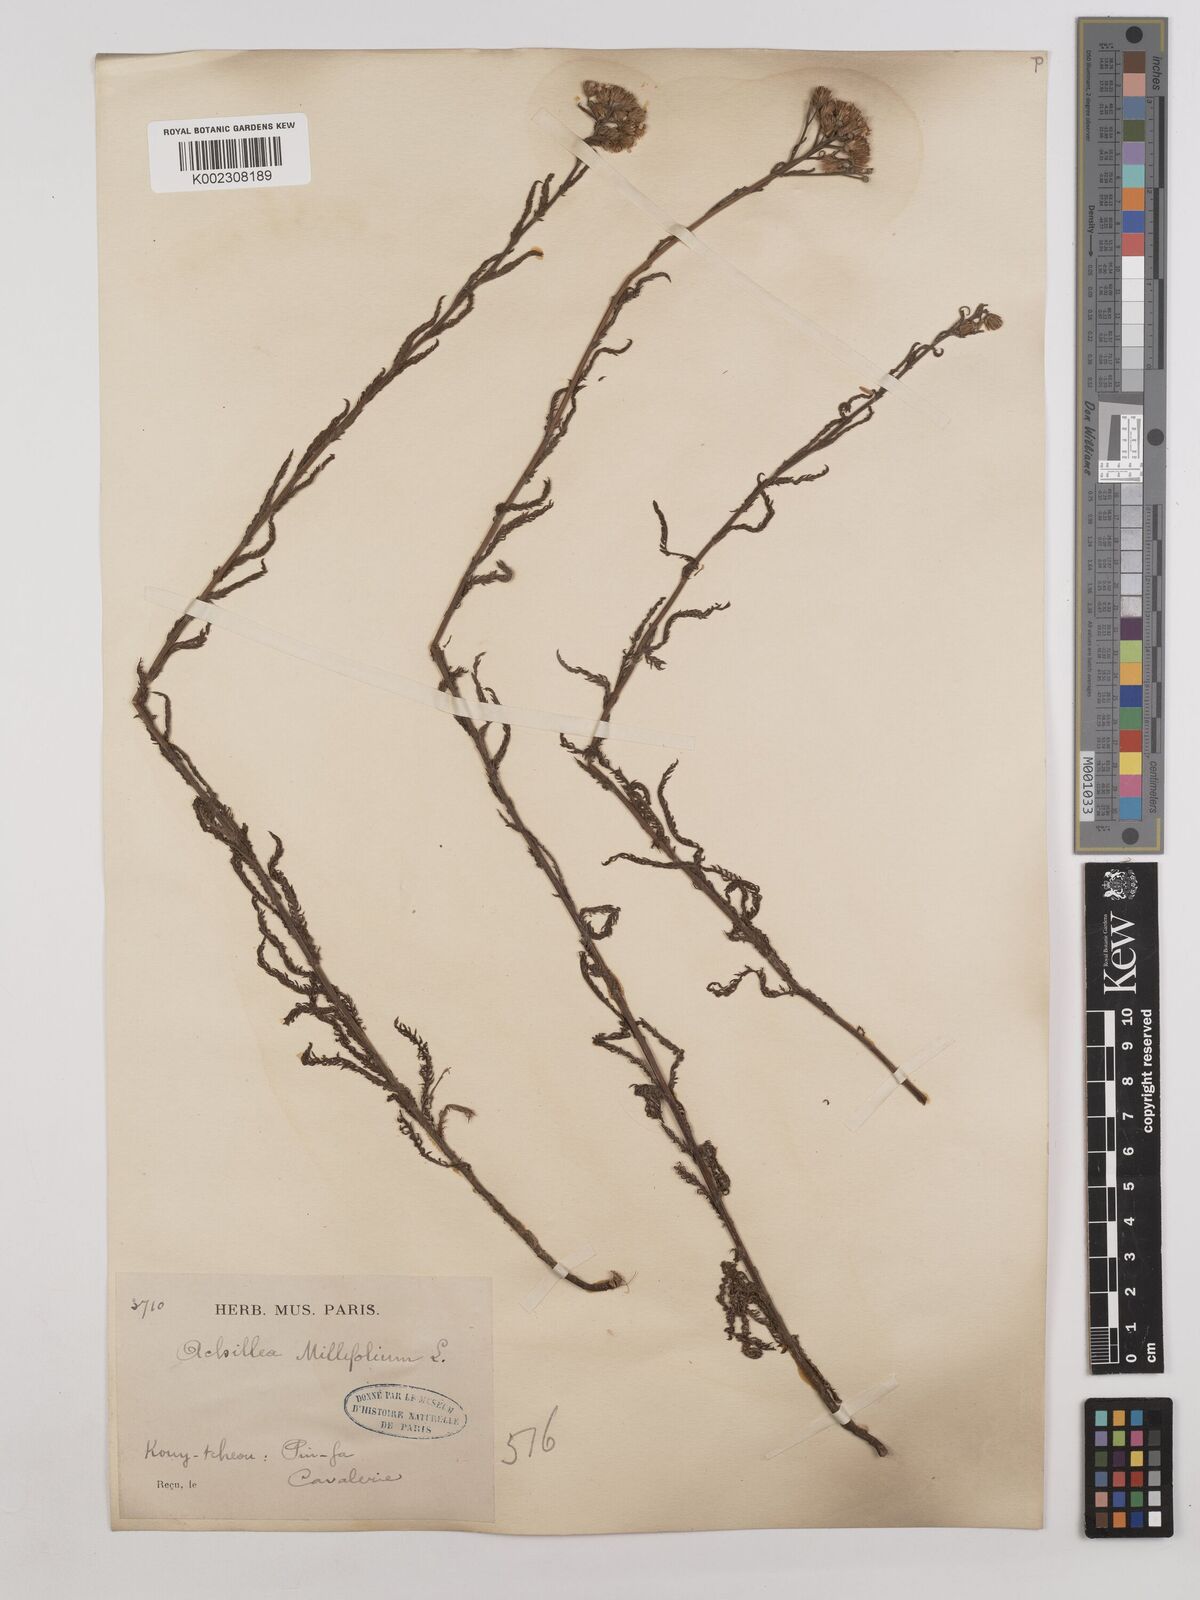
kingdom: Plantae
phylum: Tracheophyta
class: Magnoliopsida
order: Asterales
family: Asteraceae
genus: Achillea
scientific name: Achillea alpina
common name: Siberian yarrow
